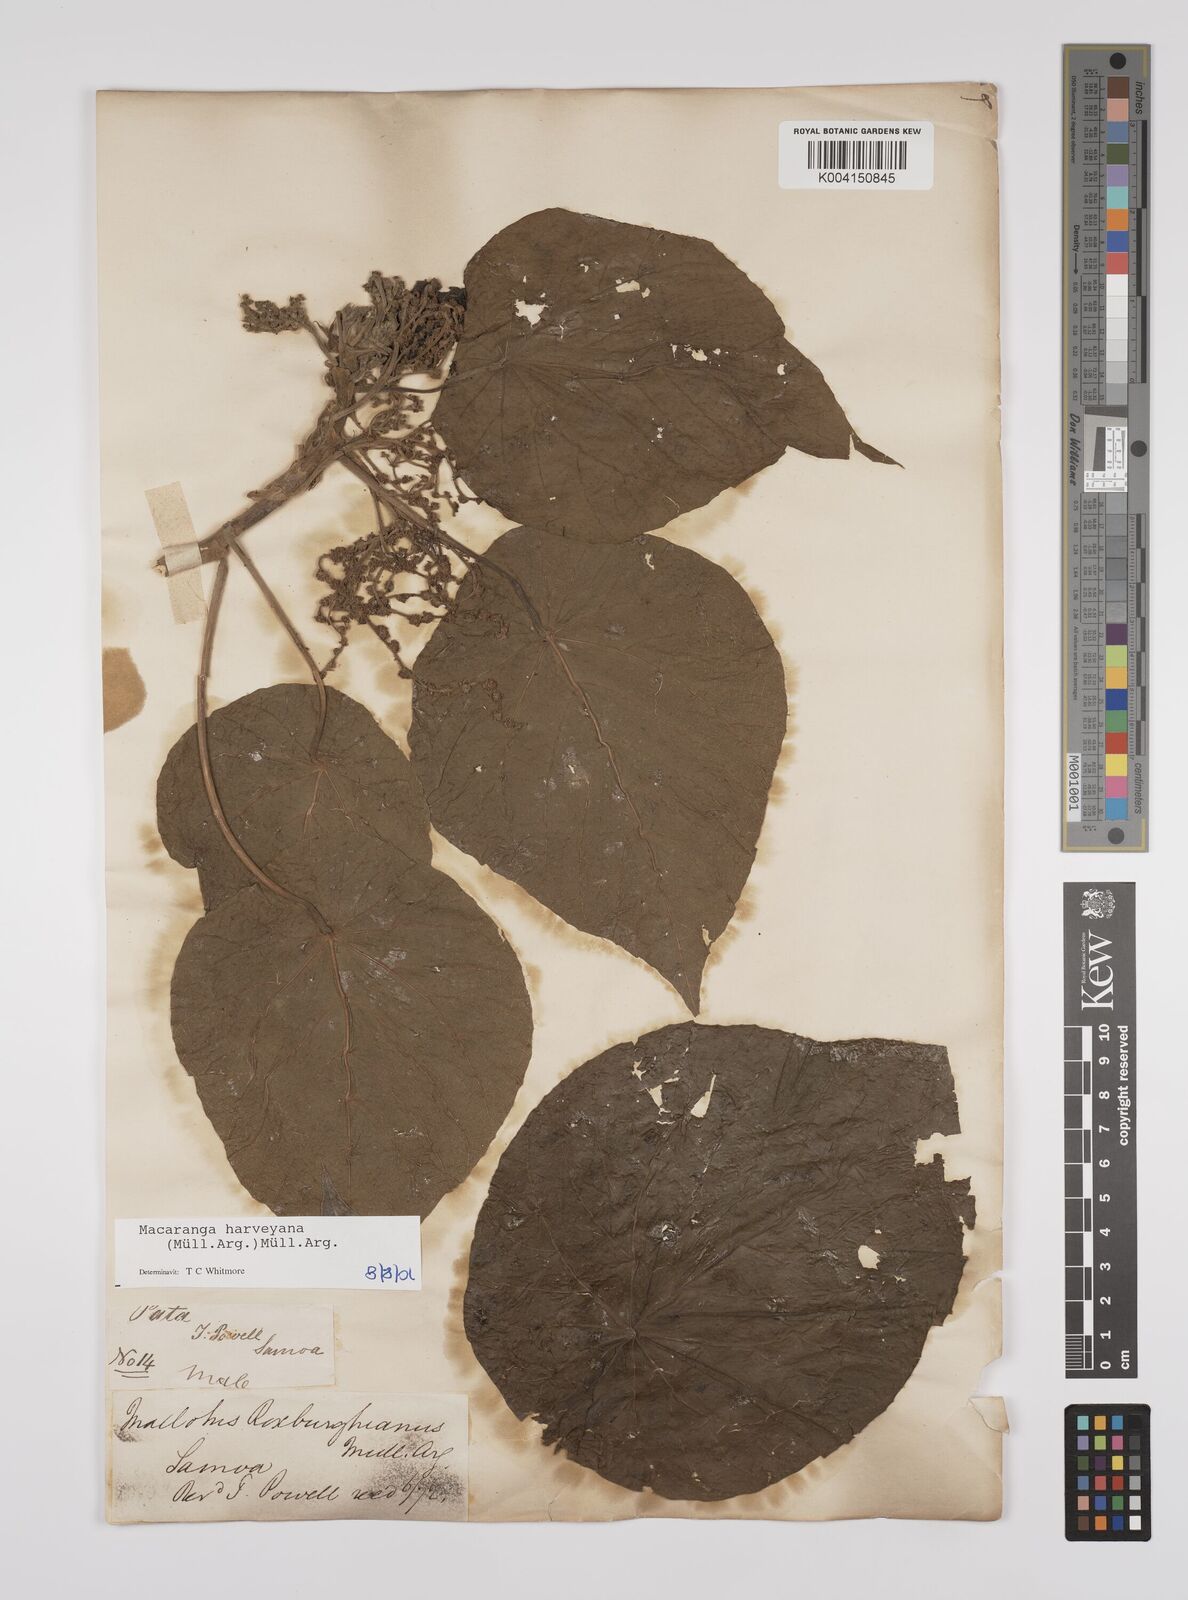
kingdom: Plantae
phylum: Tracheophyta
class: Magnoliopsida
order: Malpighiales
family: Euphorbiaceae
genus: Macaranga
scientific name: Macaranga harveyana
